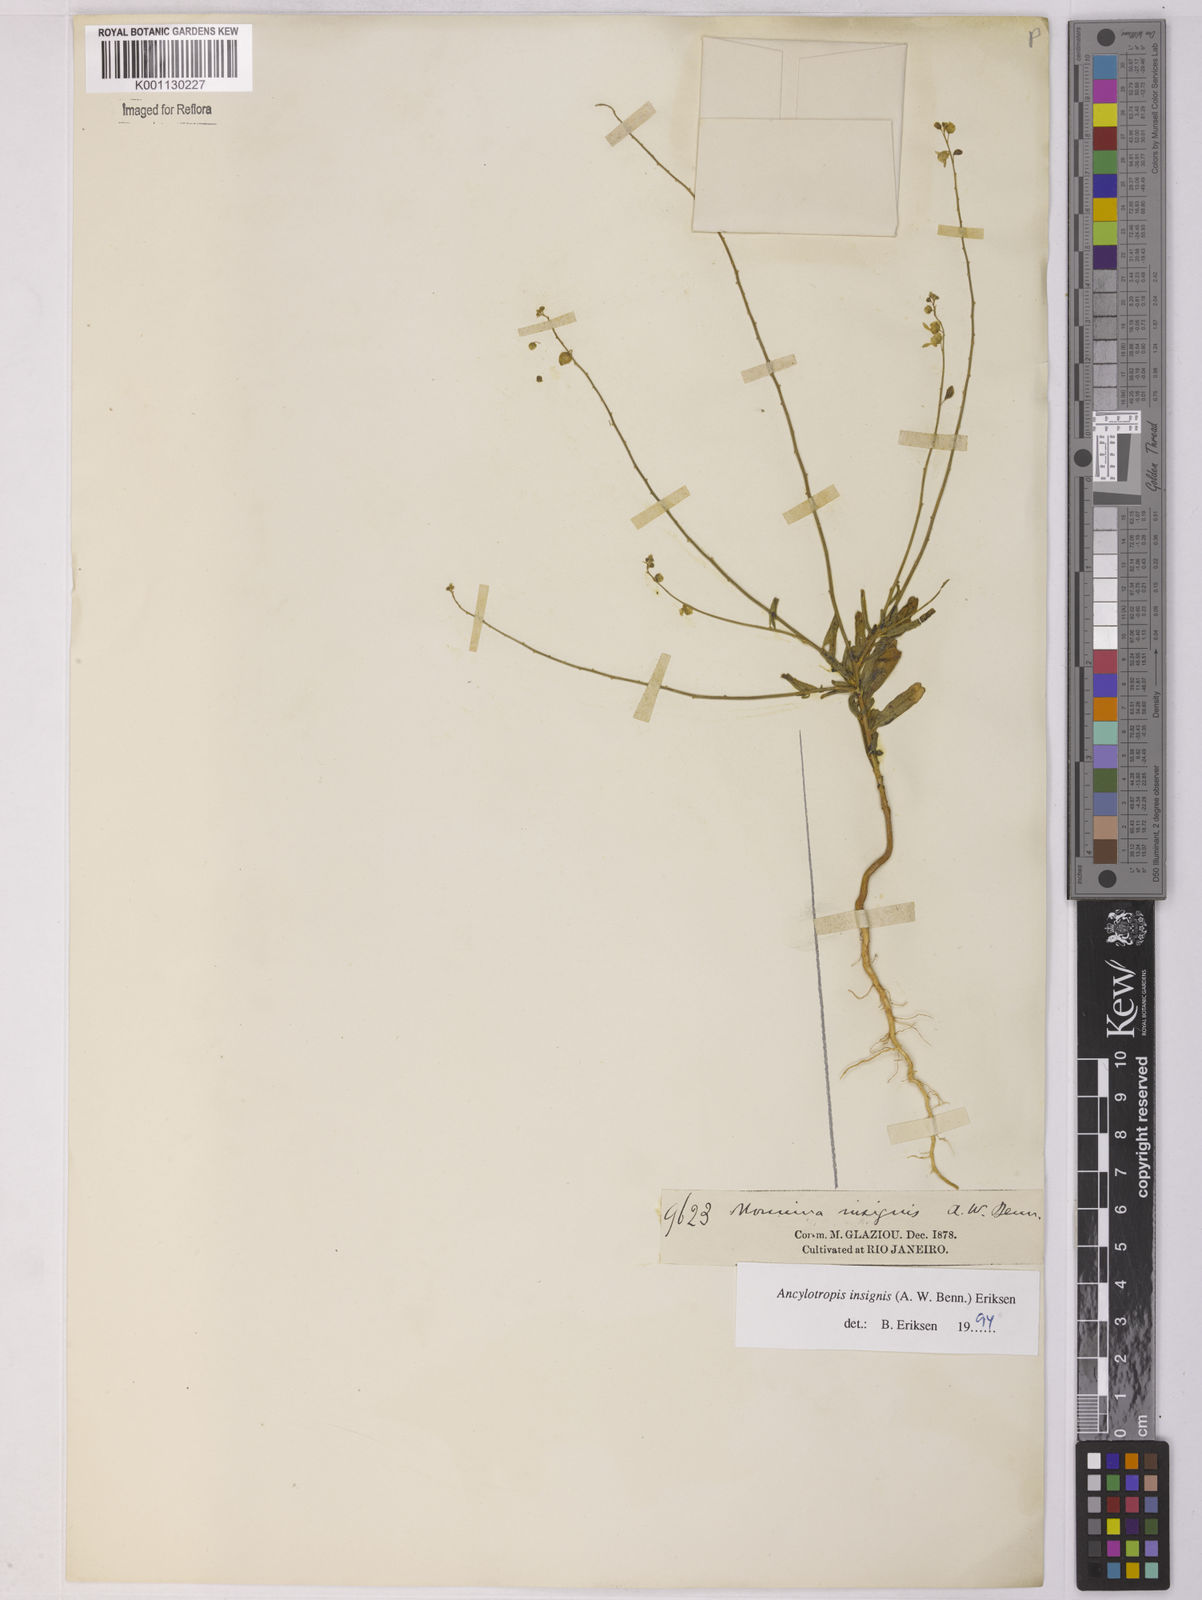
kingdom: Plantae
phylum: Tracheophyta
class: Magnoliopsida
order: Fabales
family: Polygalaceae
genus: Ancylotropis
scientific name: Ancylotropis insignis
